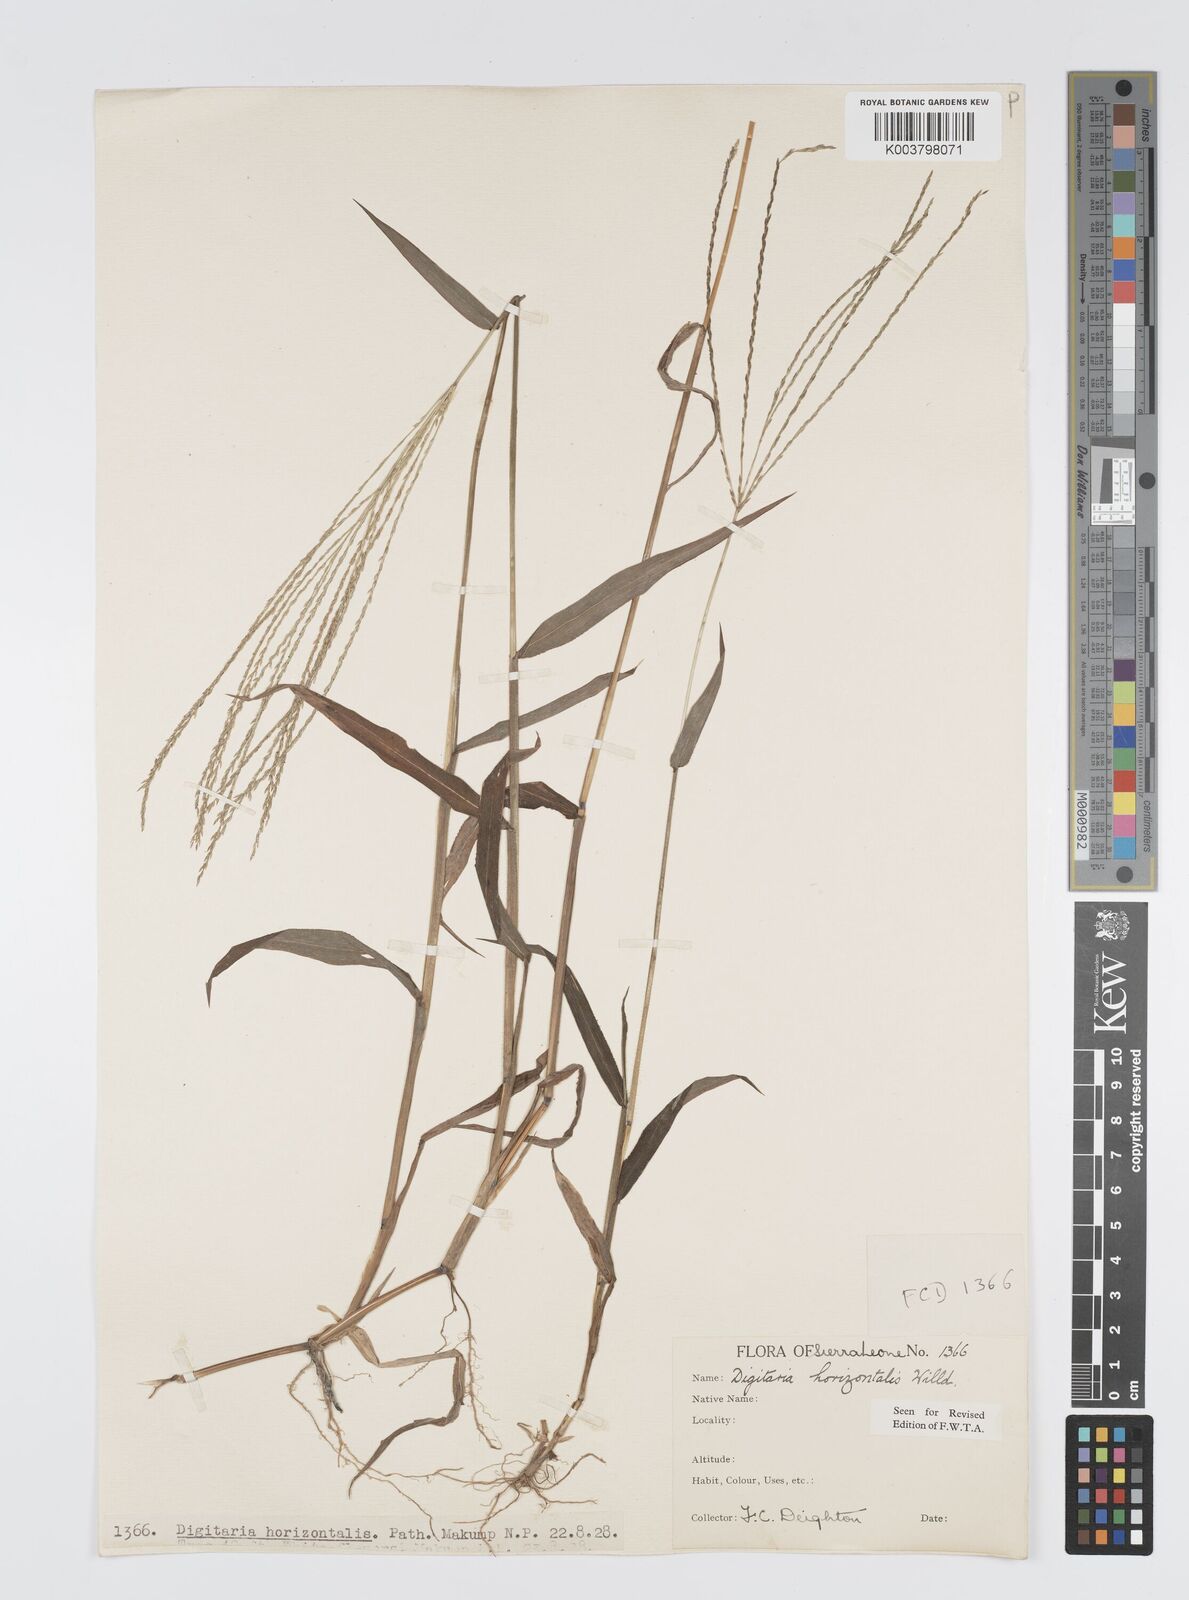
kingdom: Plantae
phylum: Tracheophyta
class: Liliopsida
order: Poales
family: Poaceae
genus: Digitaria
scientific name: Digitaria horizontalis
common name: Jamaican crabgrass
